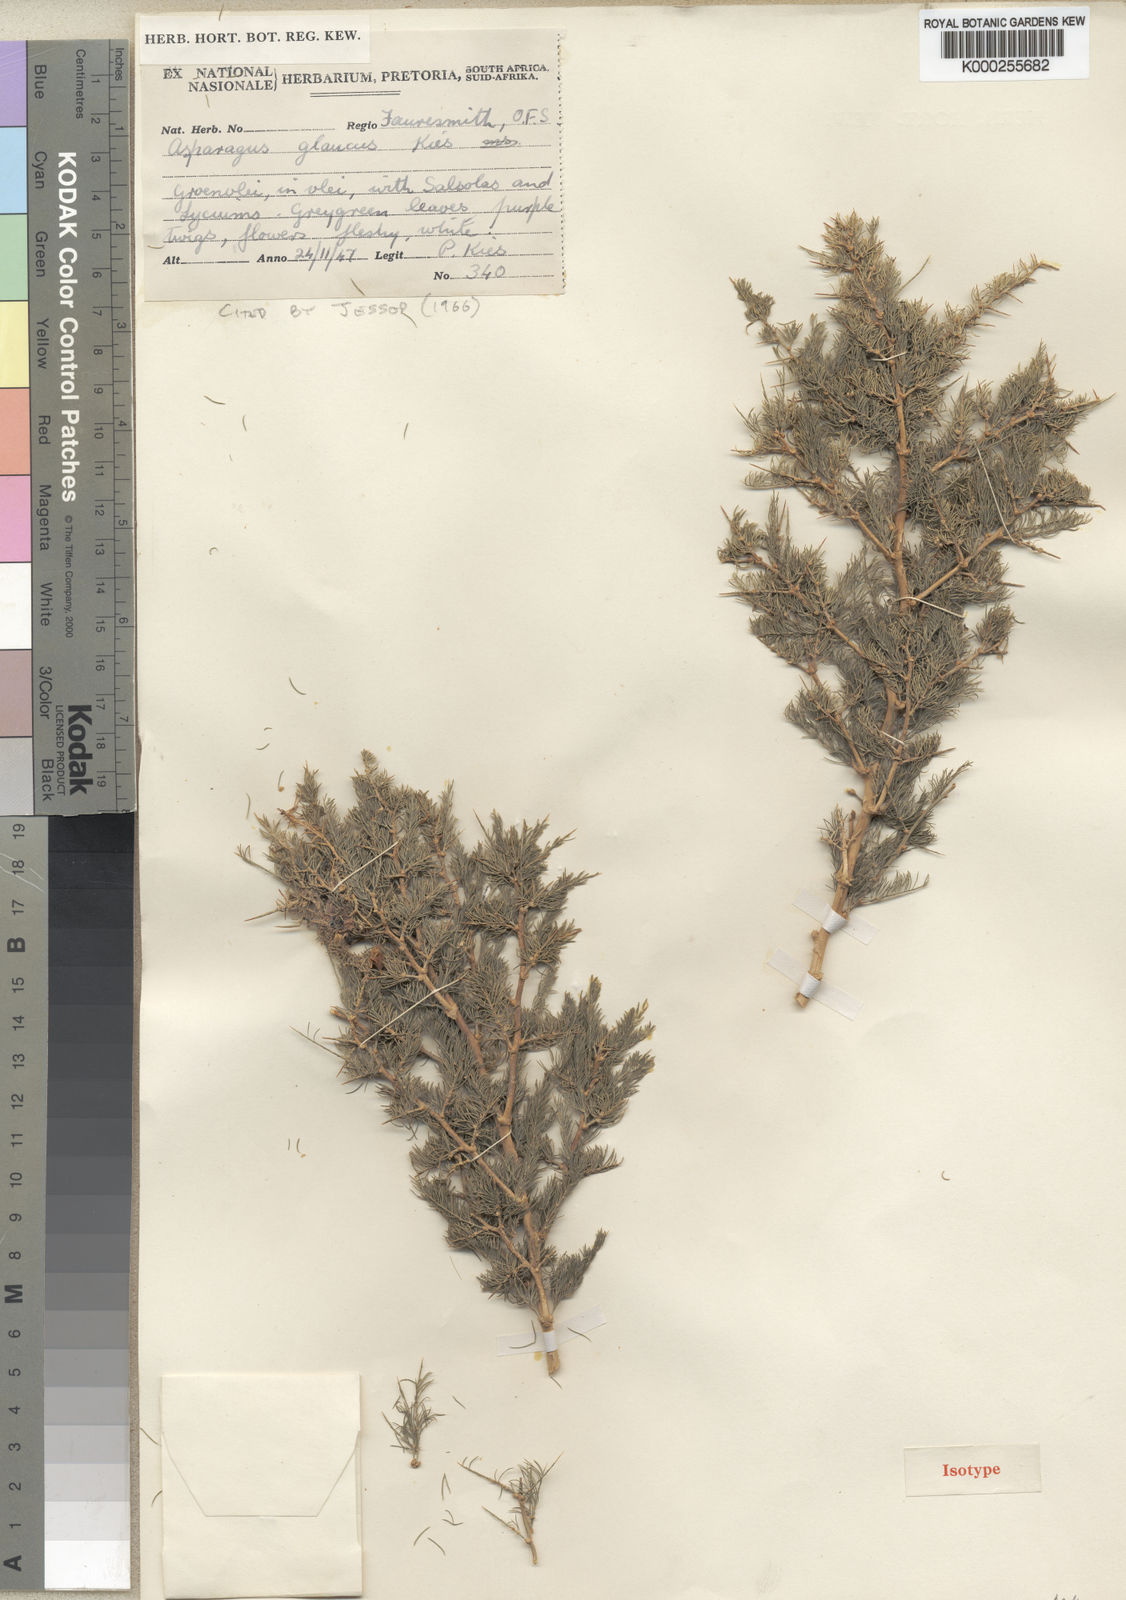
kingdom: Plantae
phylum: Tracheophyta
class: Liliopsida
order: Asparagales
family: Asparagaceae
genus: Asparagus
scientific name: Asparagus glaucus
